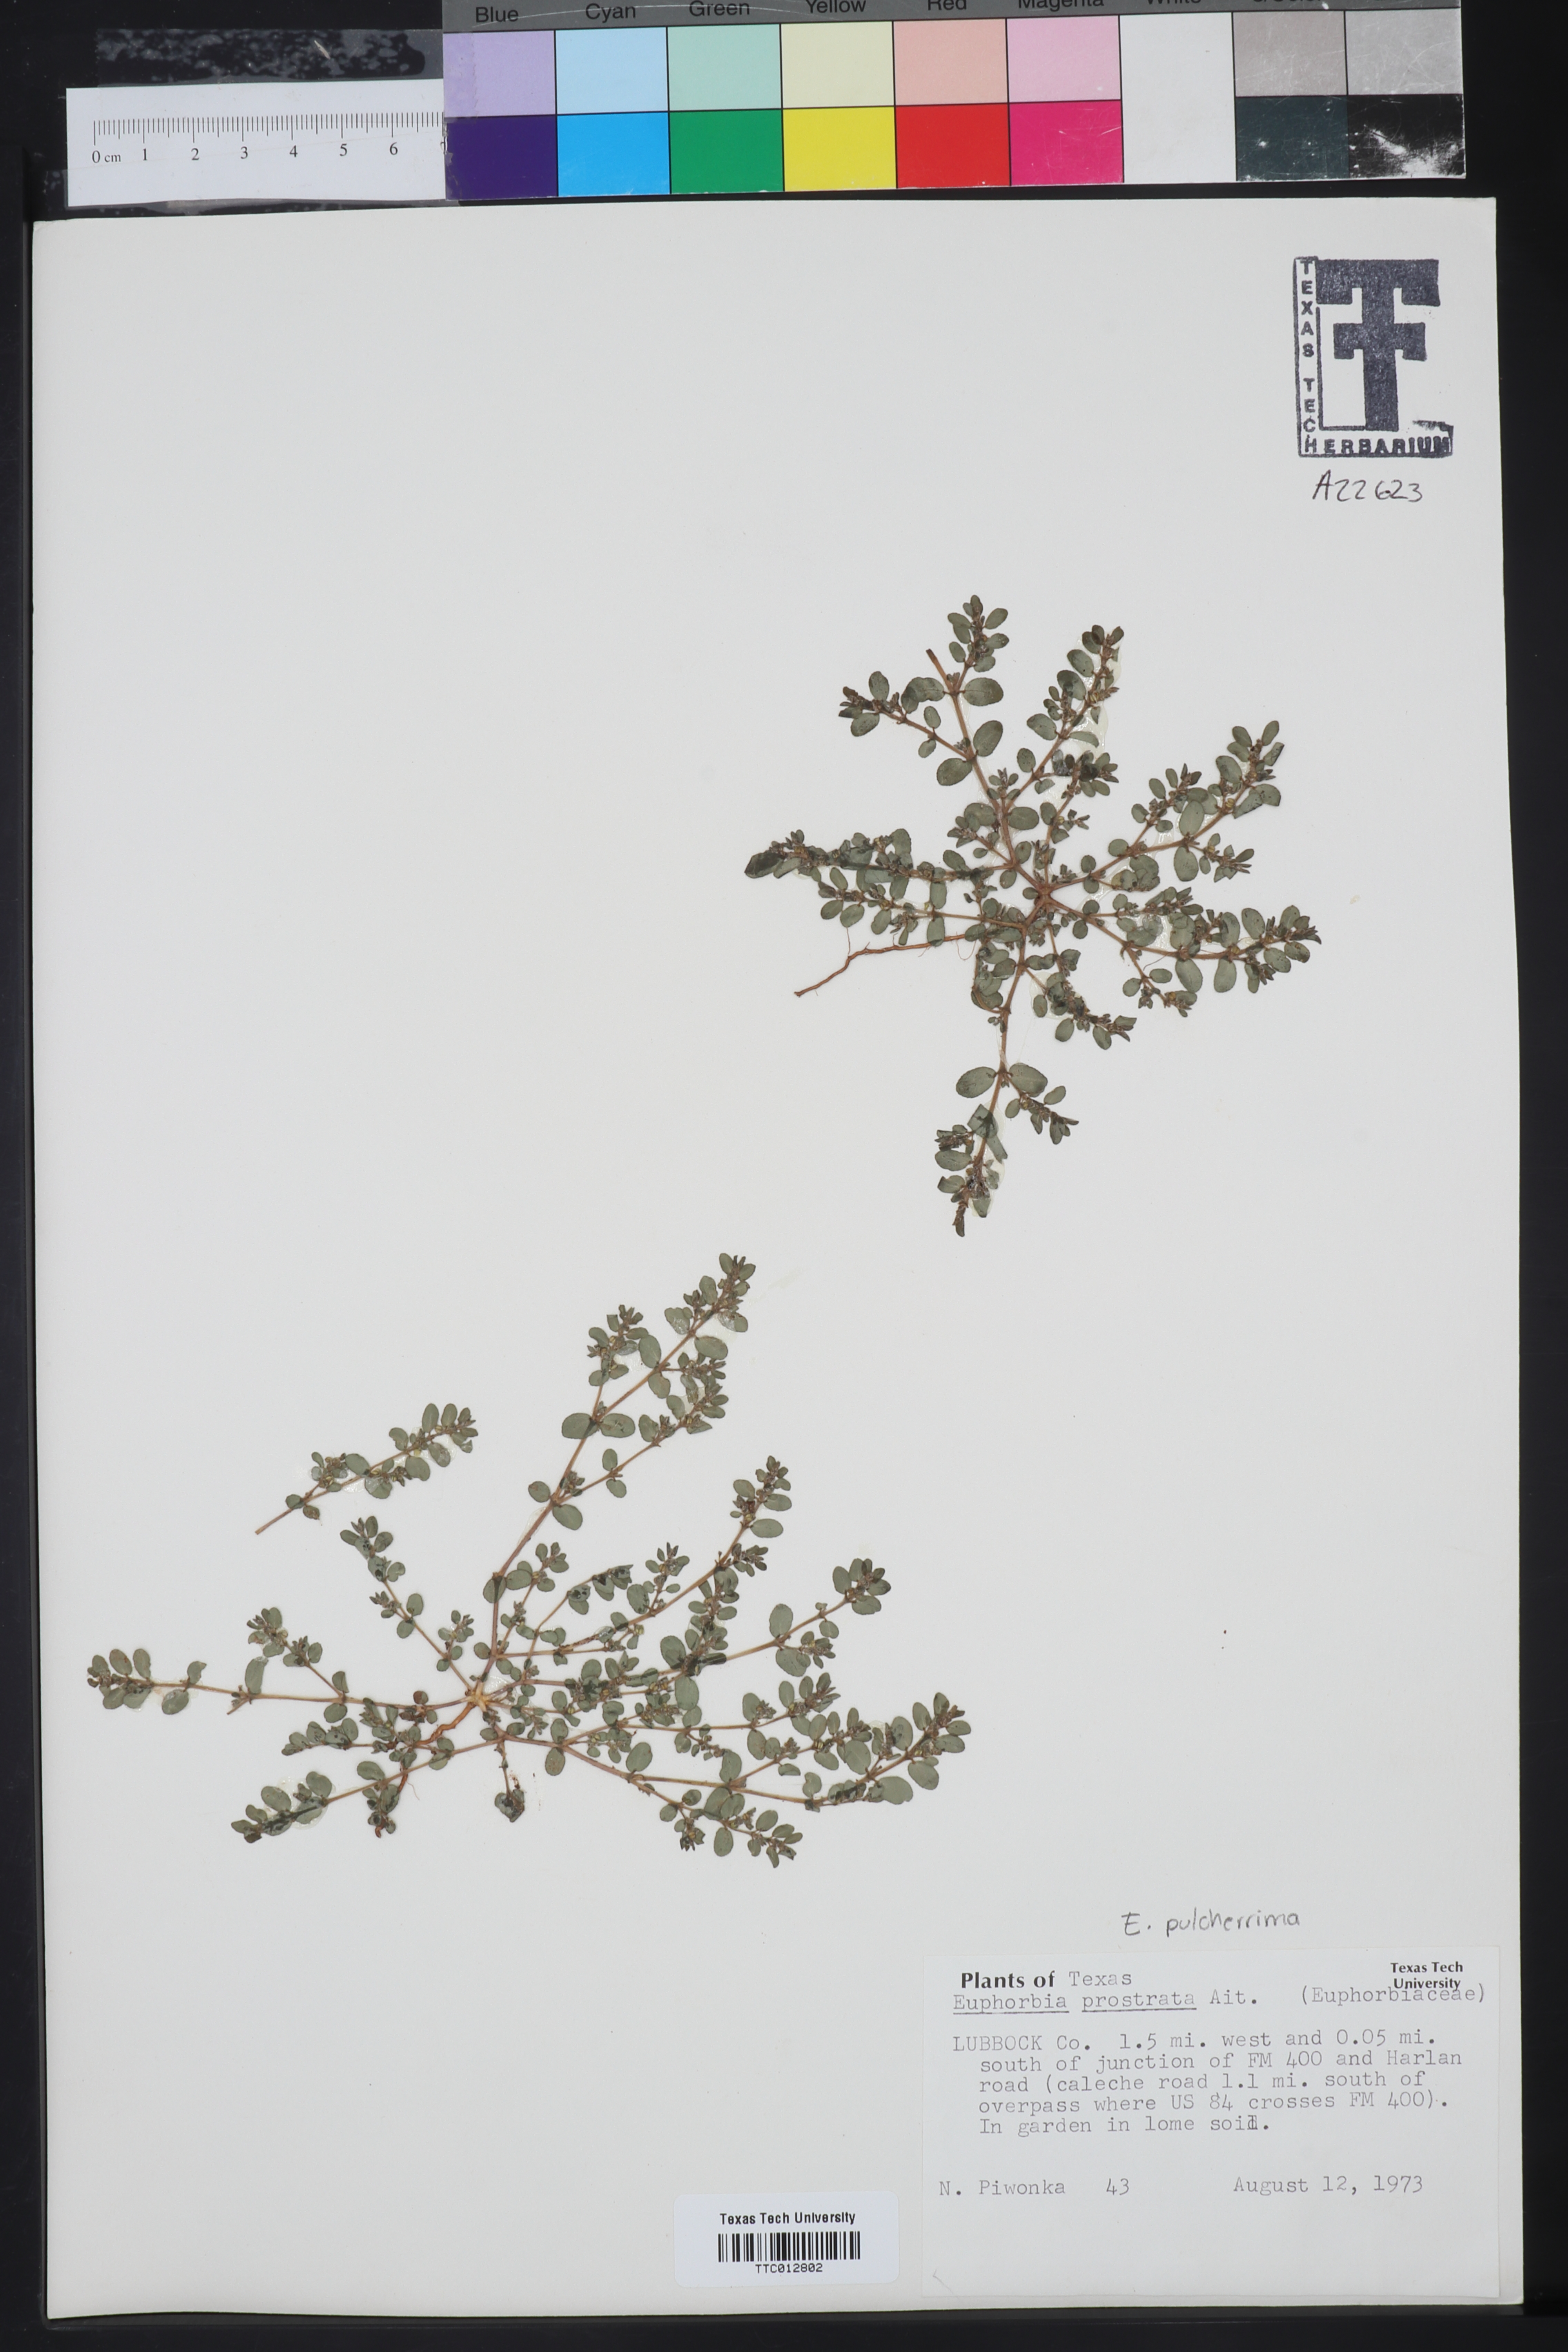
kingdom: Plantae
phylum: Tracheophyta
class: Magnoliopsida
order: Malpighiales
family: Euphorbiaceae
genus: Euphorbia
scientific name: Euphorbia prostrata
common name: Prostrate sandmat
